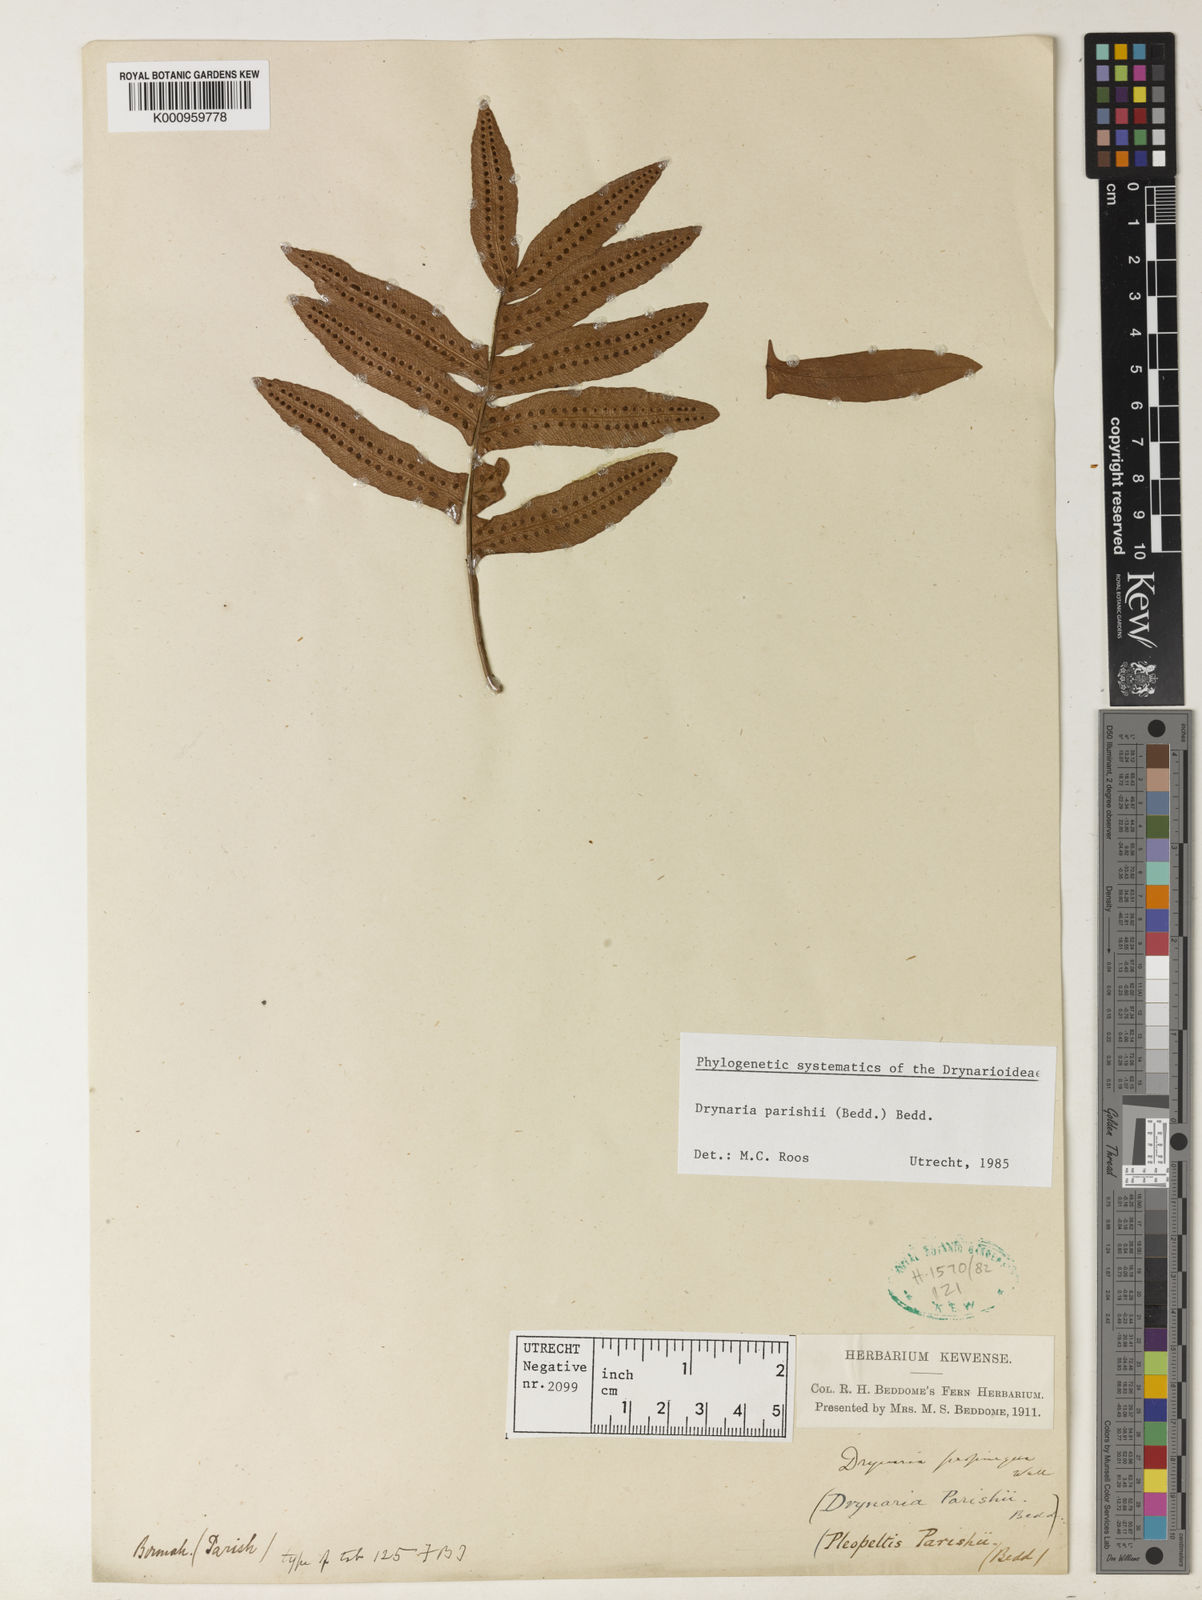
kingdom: Plantae
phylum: Tracheophyta
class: Polypodiopsida
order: Polypodiales
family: Polypodiaceae
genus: Drynaria
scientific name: Drynaria involuta
